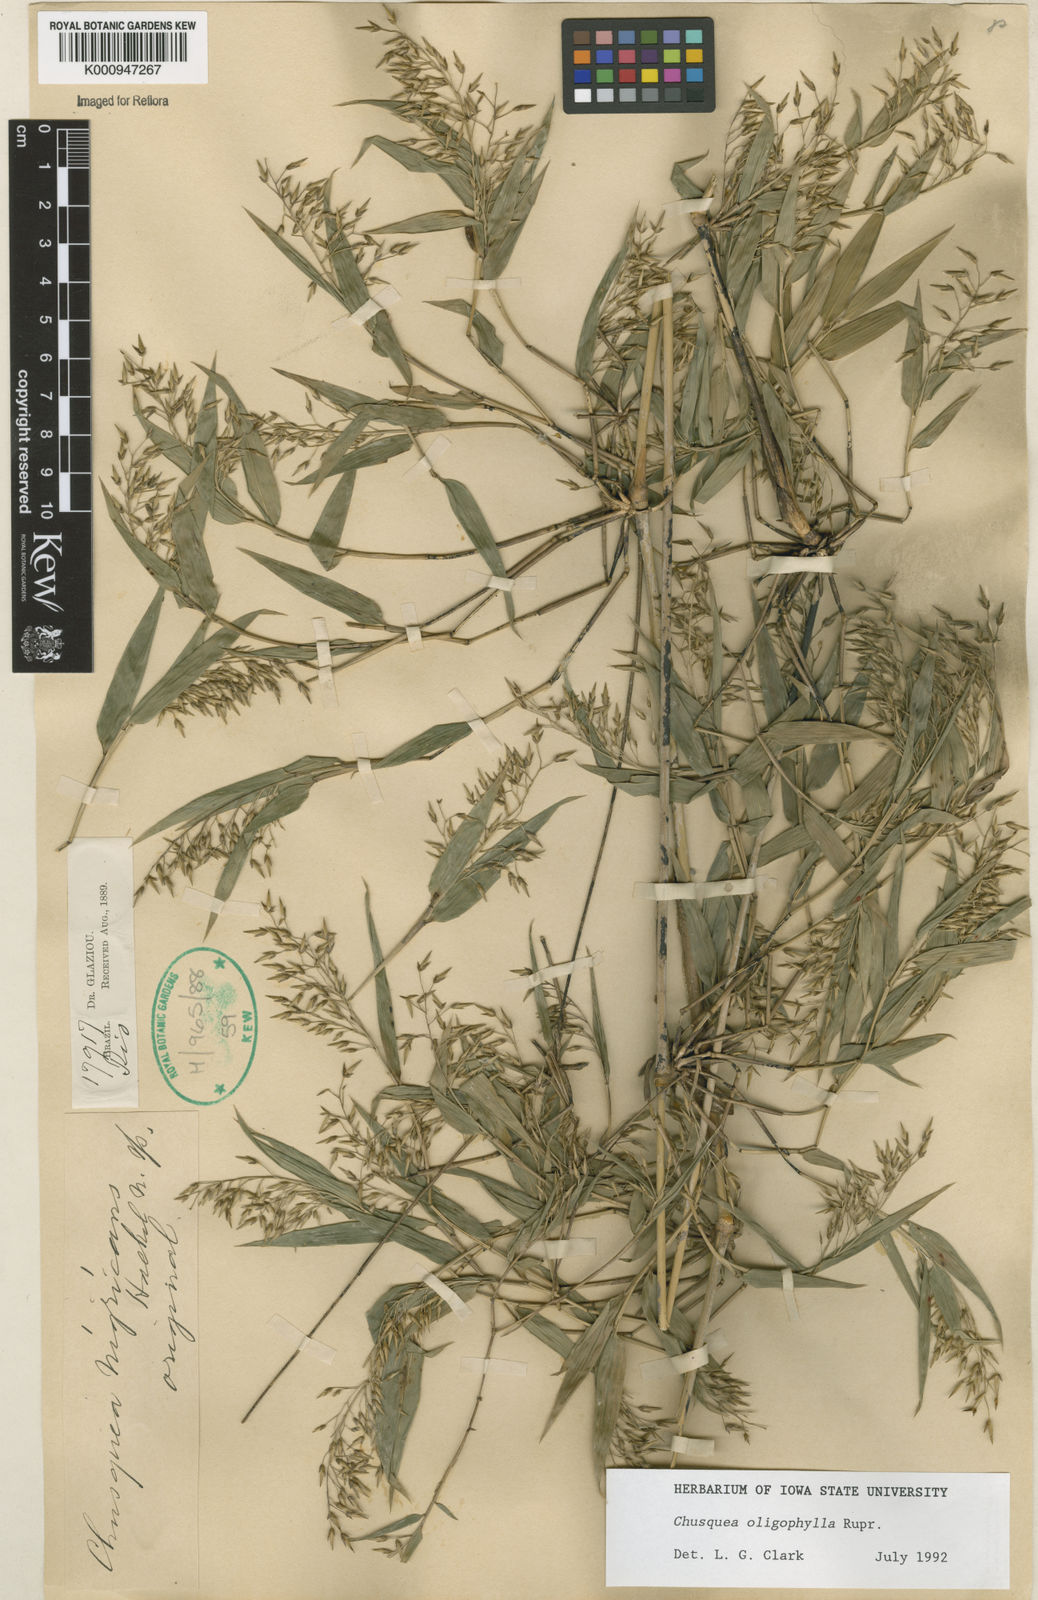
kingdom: Plantae
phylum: Tracheophyta
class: Liliopsida
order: Poales
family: Poaceae
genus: Chusquea
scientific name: Chusquea oligophylla
